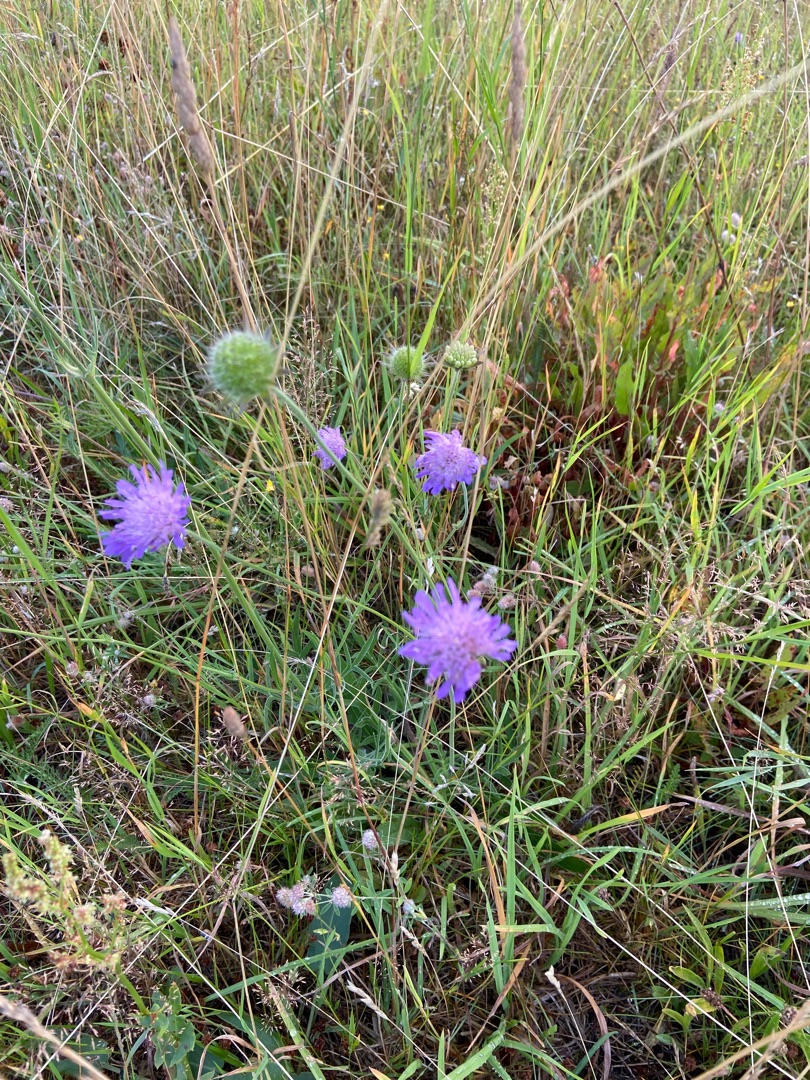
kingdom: Plantae
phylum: Tracheophyta
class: Magnoliopsida
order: Dipsacales
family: Caprifoliaceae
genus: Knautia
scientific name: Knautia arvensis
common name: Blåhat
